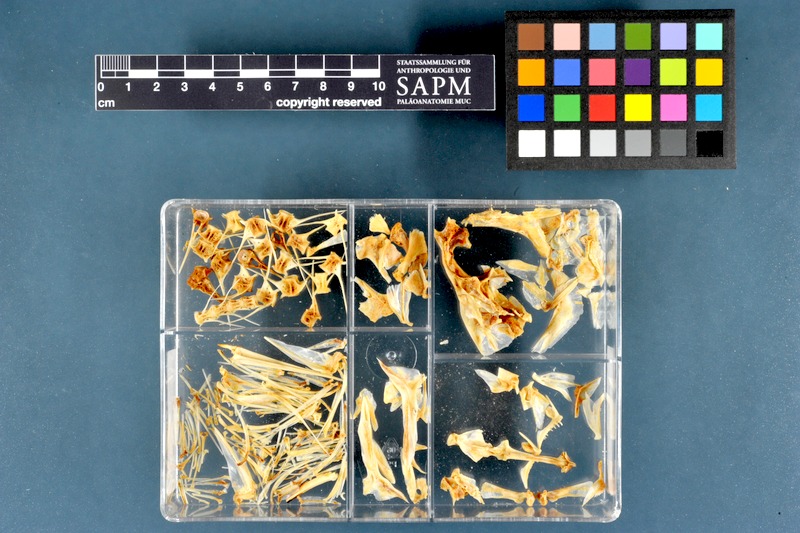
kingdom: Animalia
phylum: Chordata
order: Perciformes
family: Sciaenidae
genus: Sciaena
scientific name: Sciaena umbra
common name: Brown meagre
